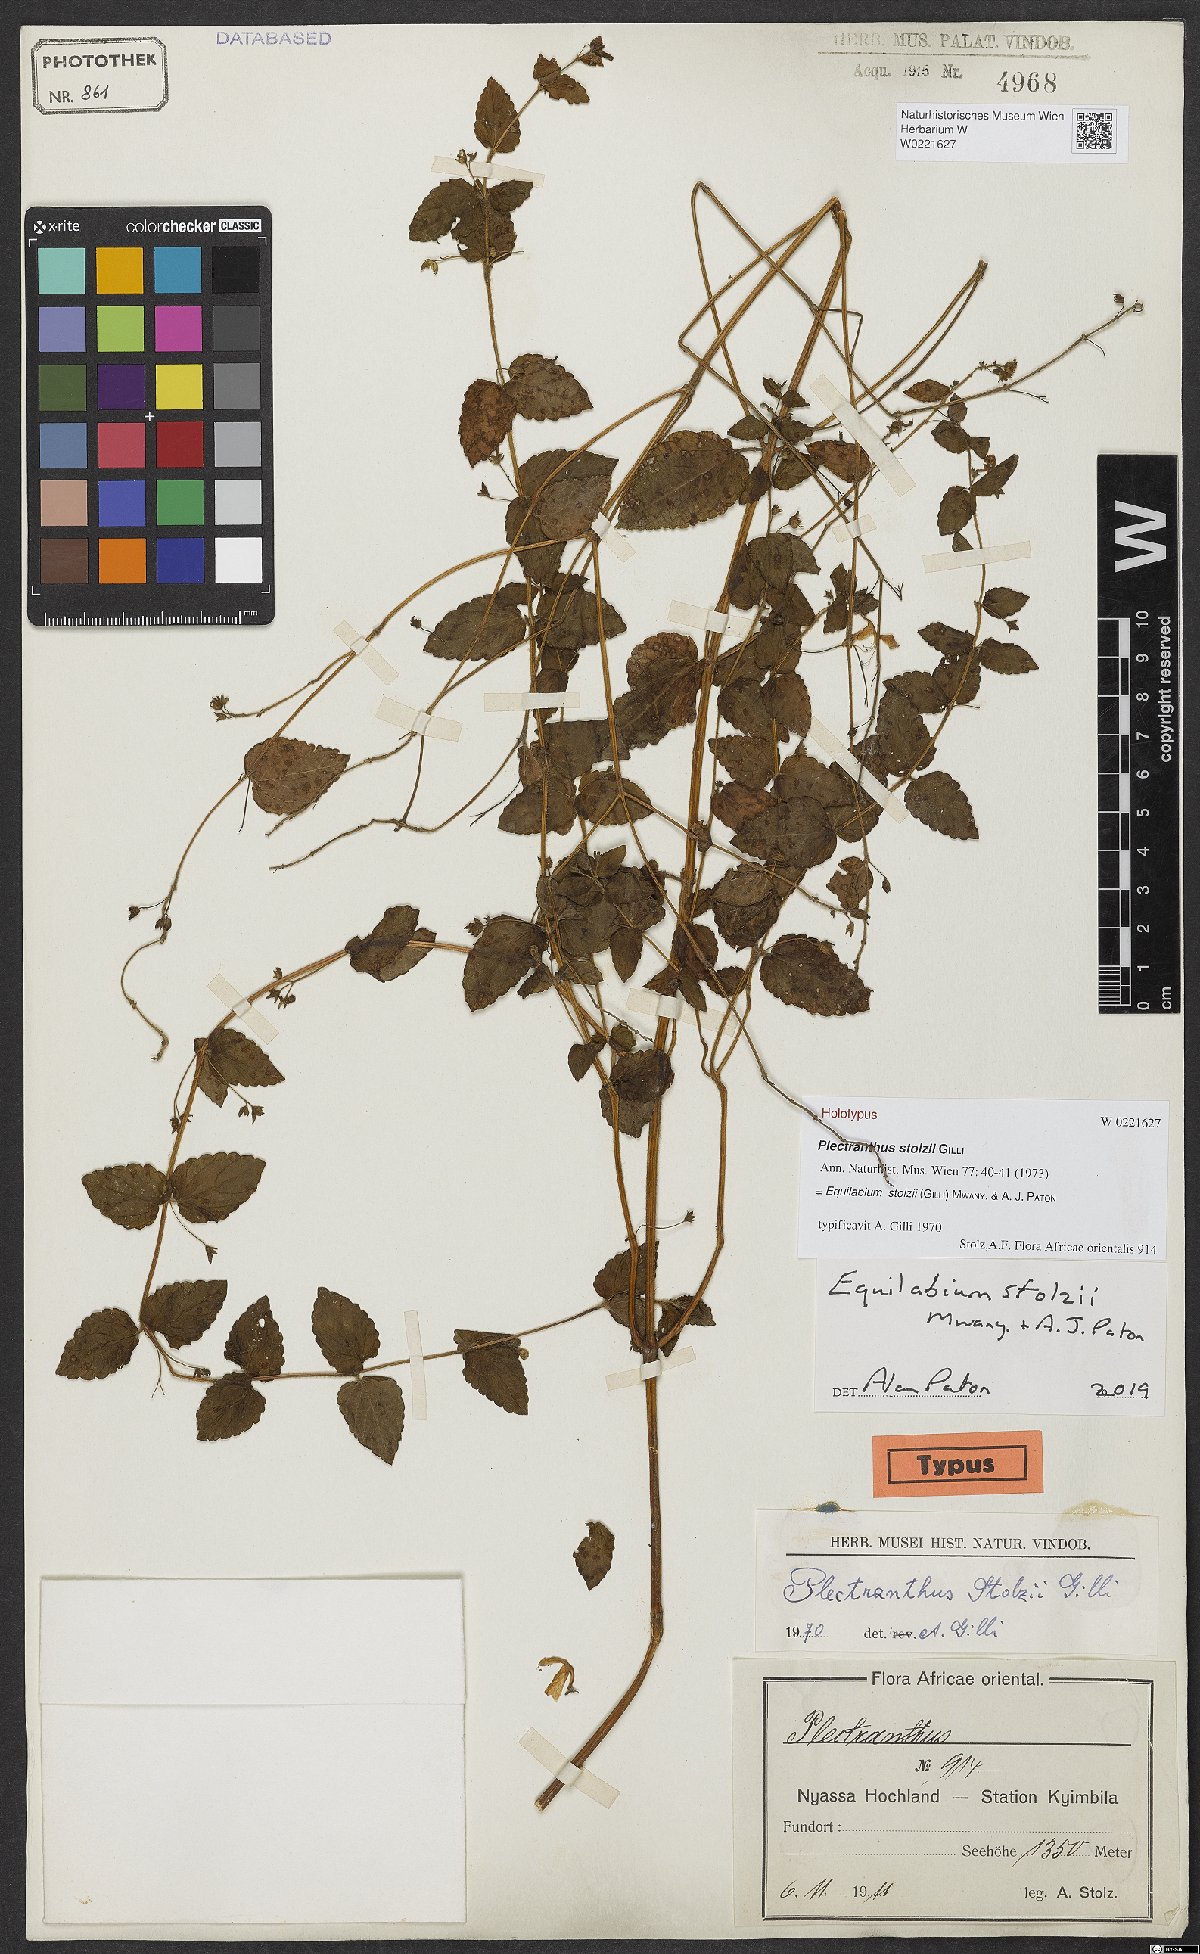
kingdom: Plantae
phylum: Tracheophyta
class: Magnoliopsida
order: Lamiales
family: Lamiaceae
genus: Equilabium
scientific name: Equilabium stolzii
